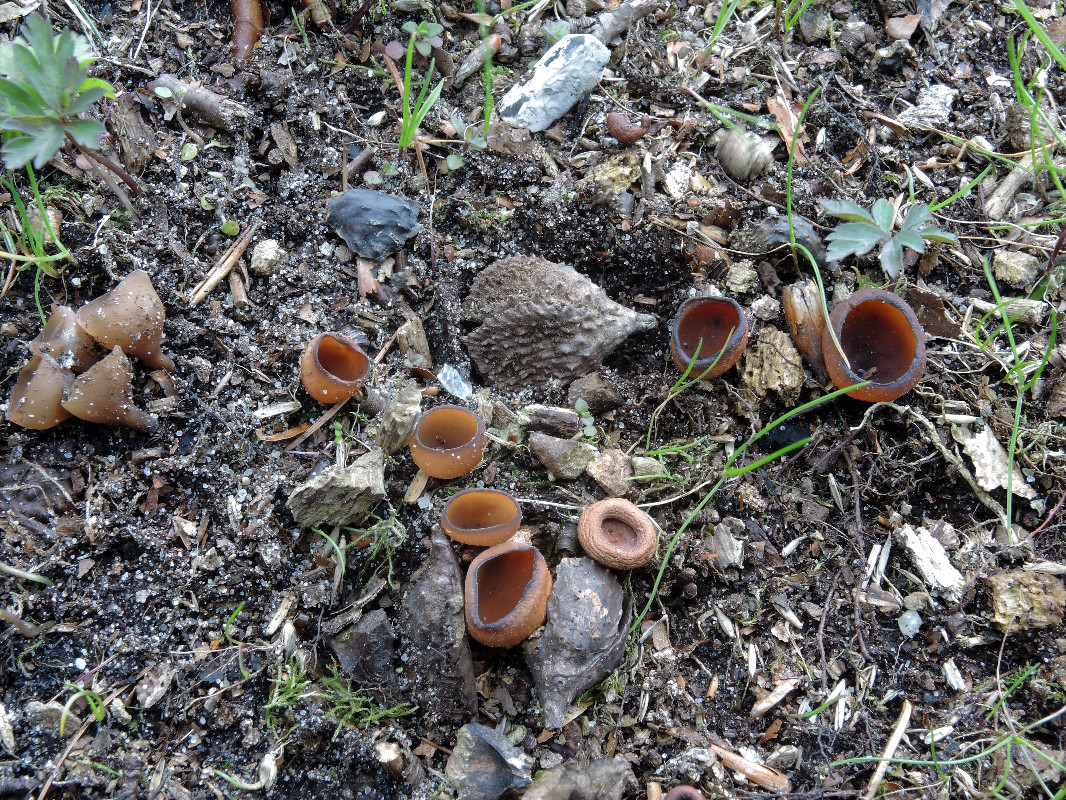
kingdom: Fungi
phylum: Ascomycota
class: Leotiomycetes
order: Helotiales
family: Sclerotiniaceae
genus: Dumontinia
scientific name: Dumontinia tuberosa
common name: anemone-knoldskive
